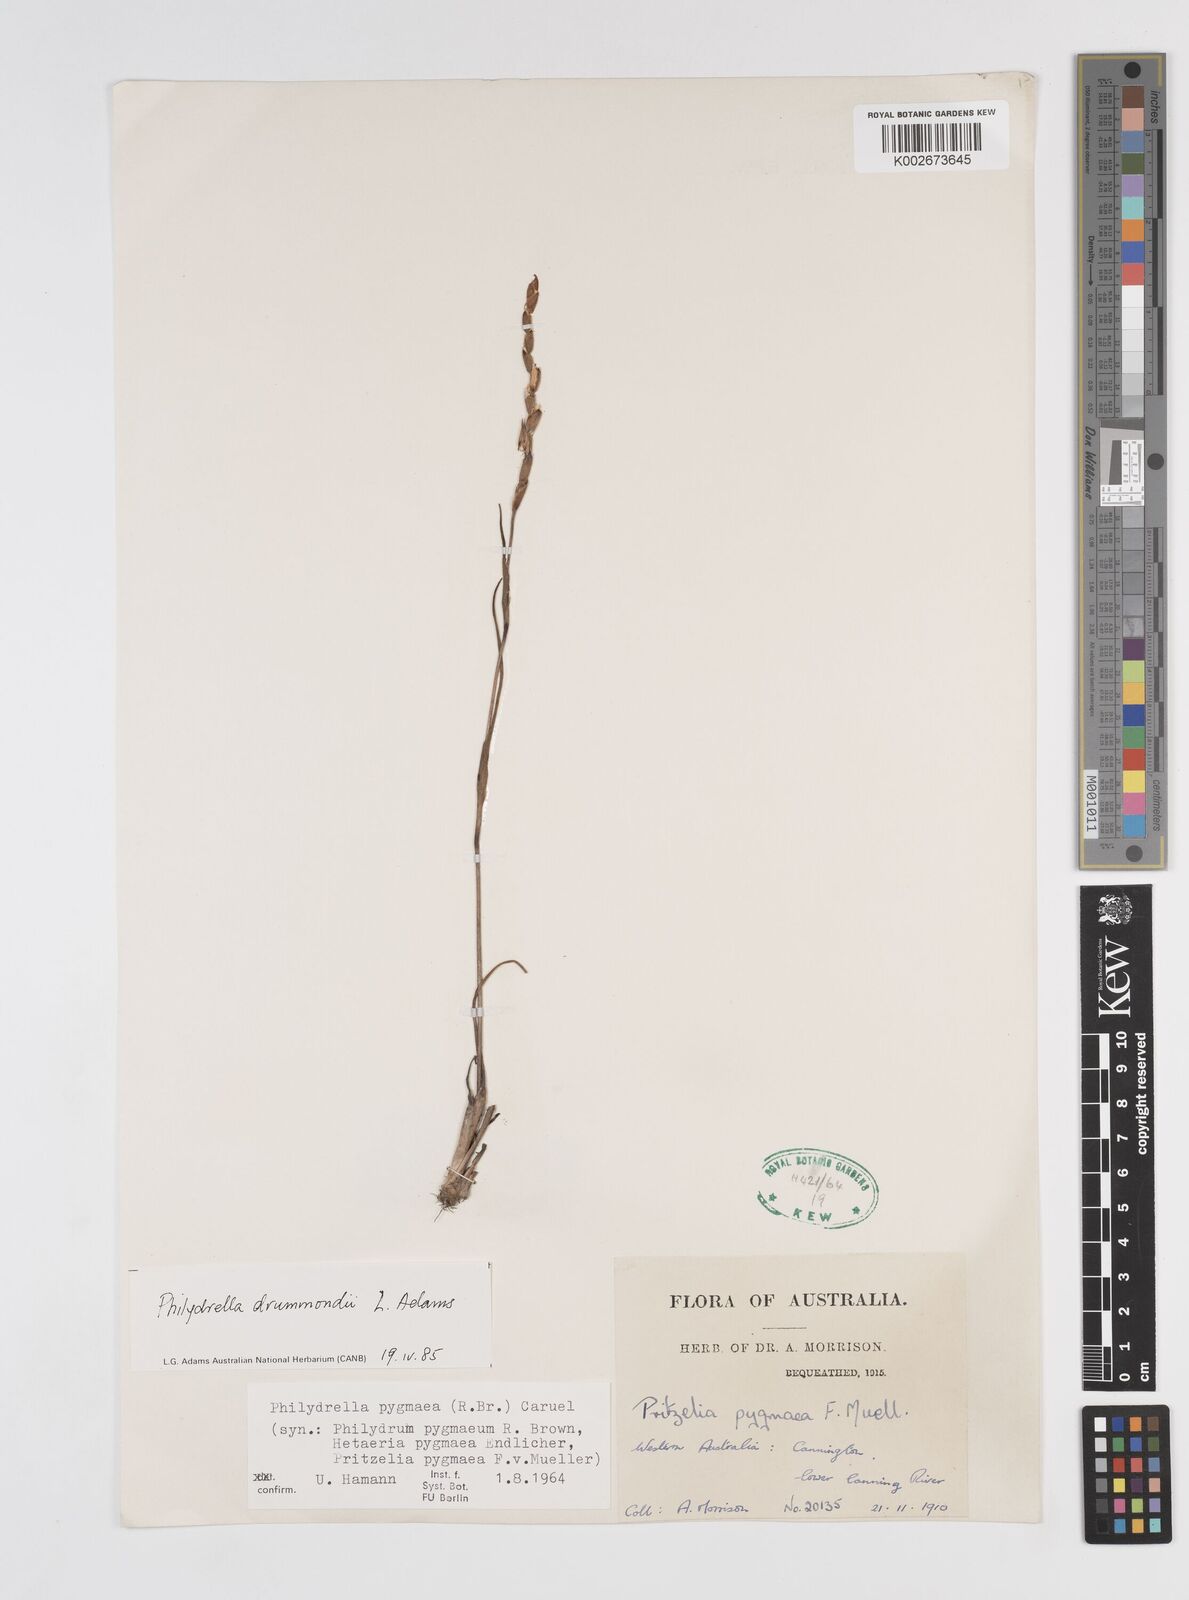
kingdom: Plantae
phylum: Tracheophyta
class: Liliopsida
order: Commelinales
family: Philydraceae
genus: Philydrella
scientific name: Philydrella drummondii
